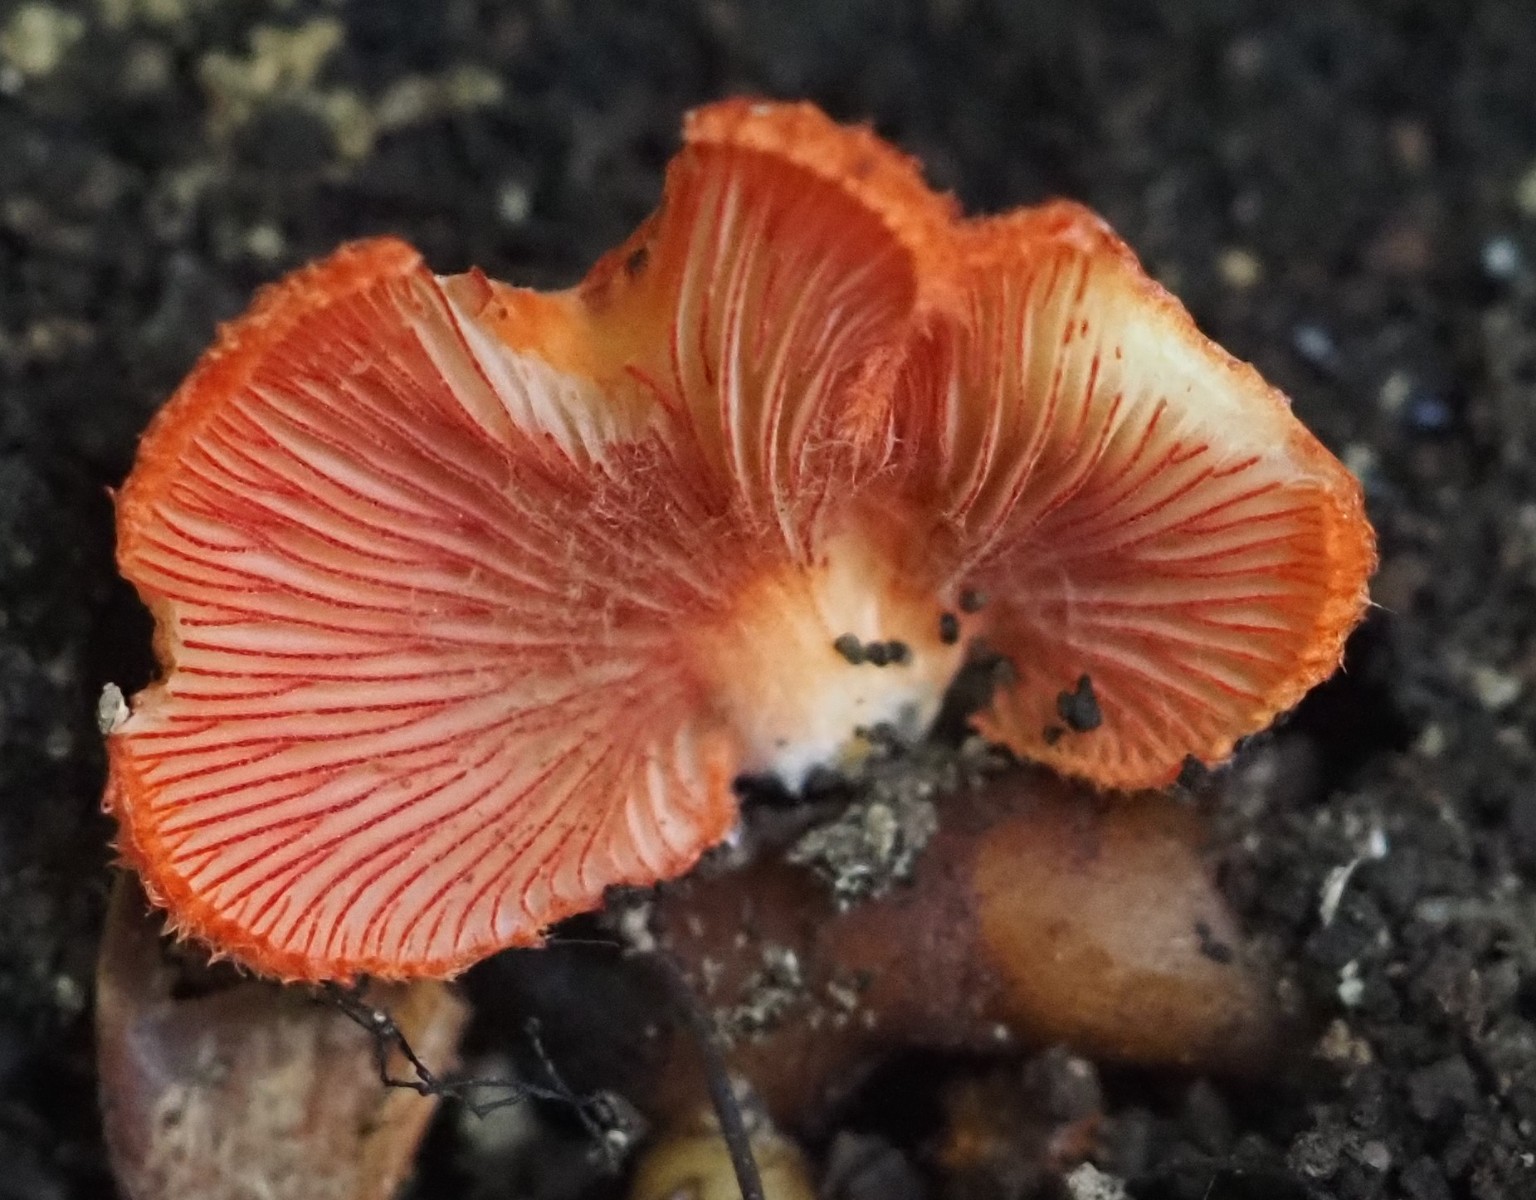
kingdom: Fungi
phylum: Basidiomycota
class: Agaricomycetes
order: Agaricales
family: Crepidotaceae
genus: Crepidotus
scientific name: Crepidotus cinnabarinus
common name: cinnober-muslingesvamp
